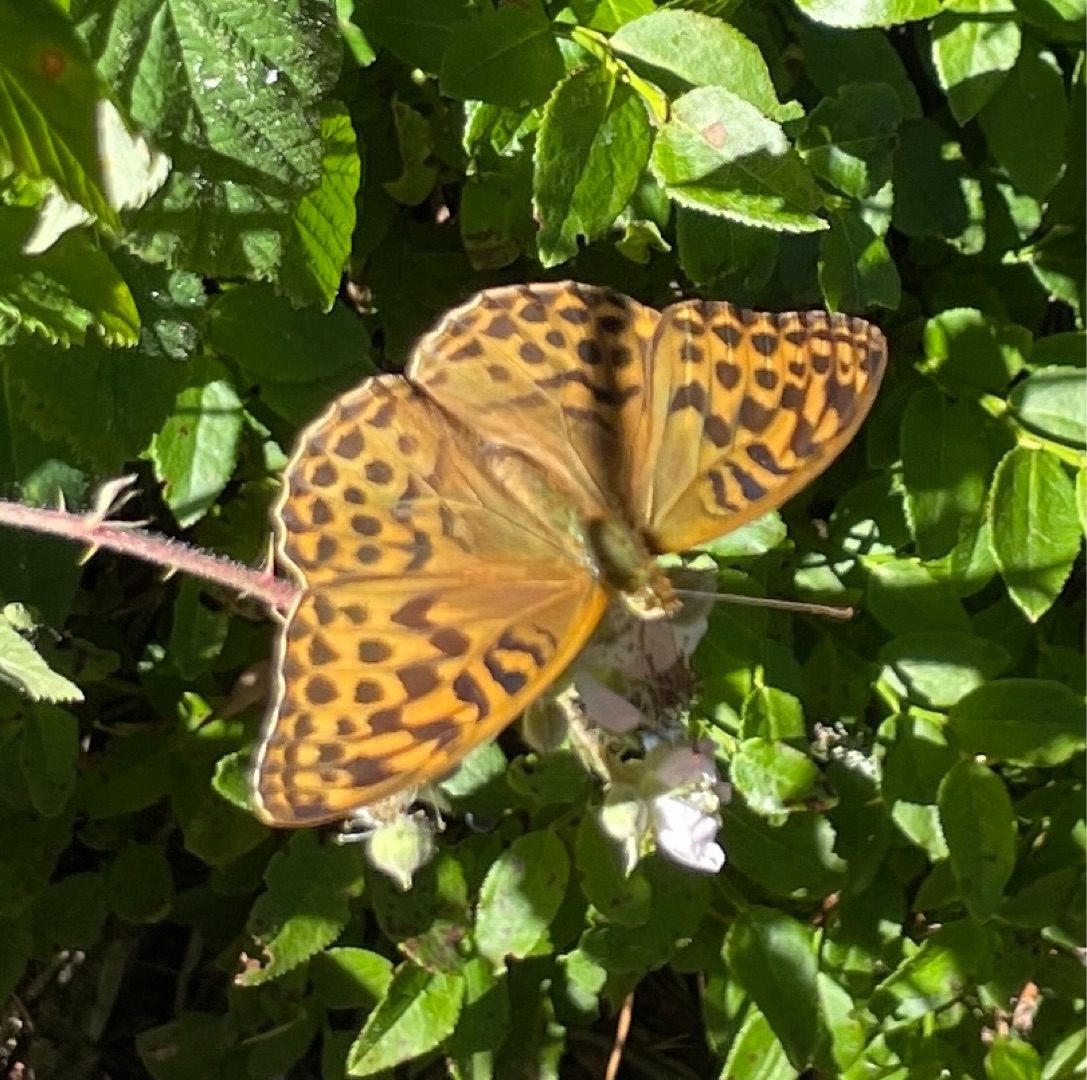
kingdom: Animalia
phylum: Arthropoda
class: Insecta
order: Lepidoptera
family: Nymphalidae
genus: Argynnis
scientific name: Argynnis paphia
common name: Kejserkåbe
